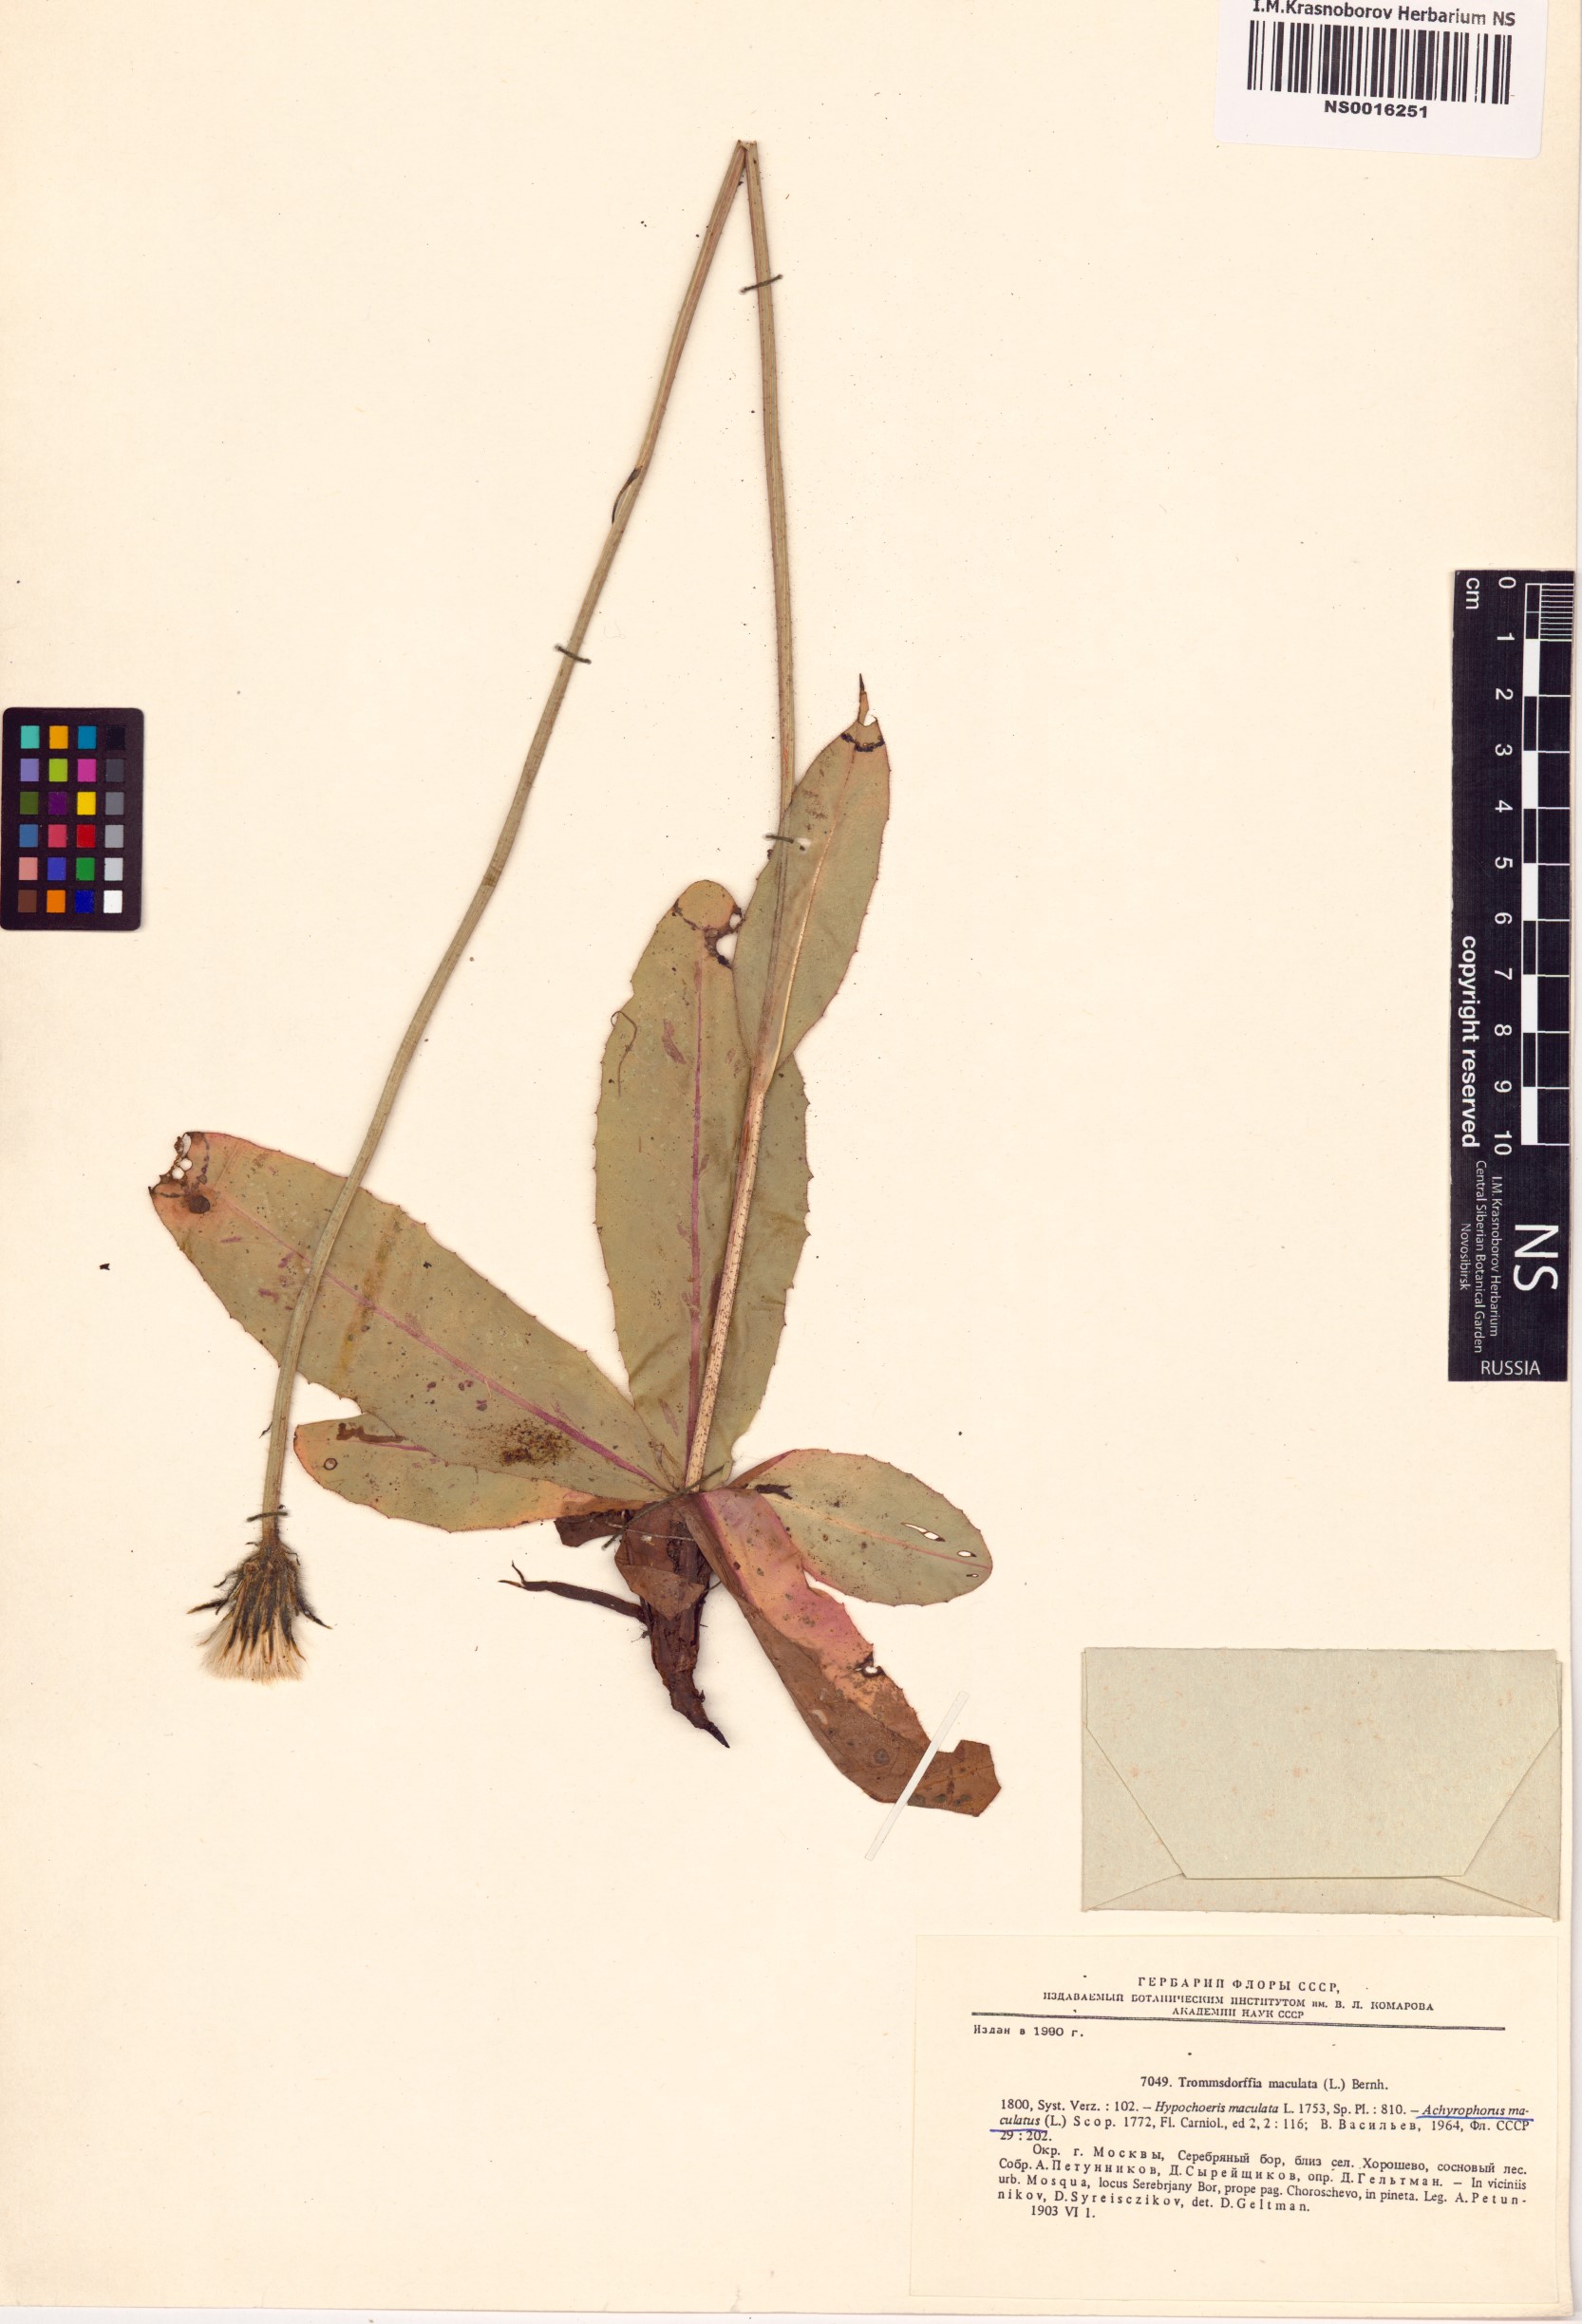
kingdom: Plantae
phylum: Tracheophyta
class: Magnoliopsida
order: Asterales
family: Asteraceae
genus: Trommsdorffia
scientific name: Trommsdorffia maculata
